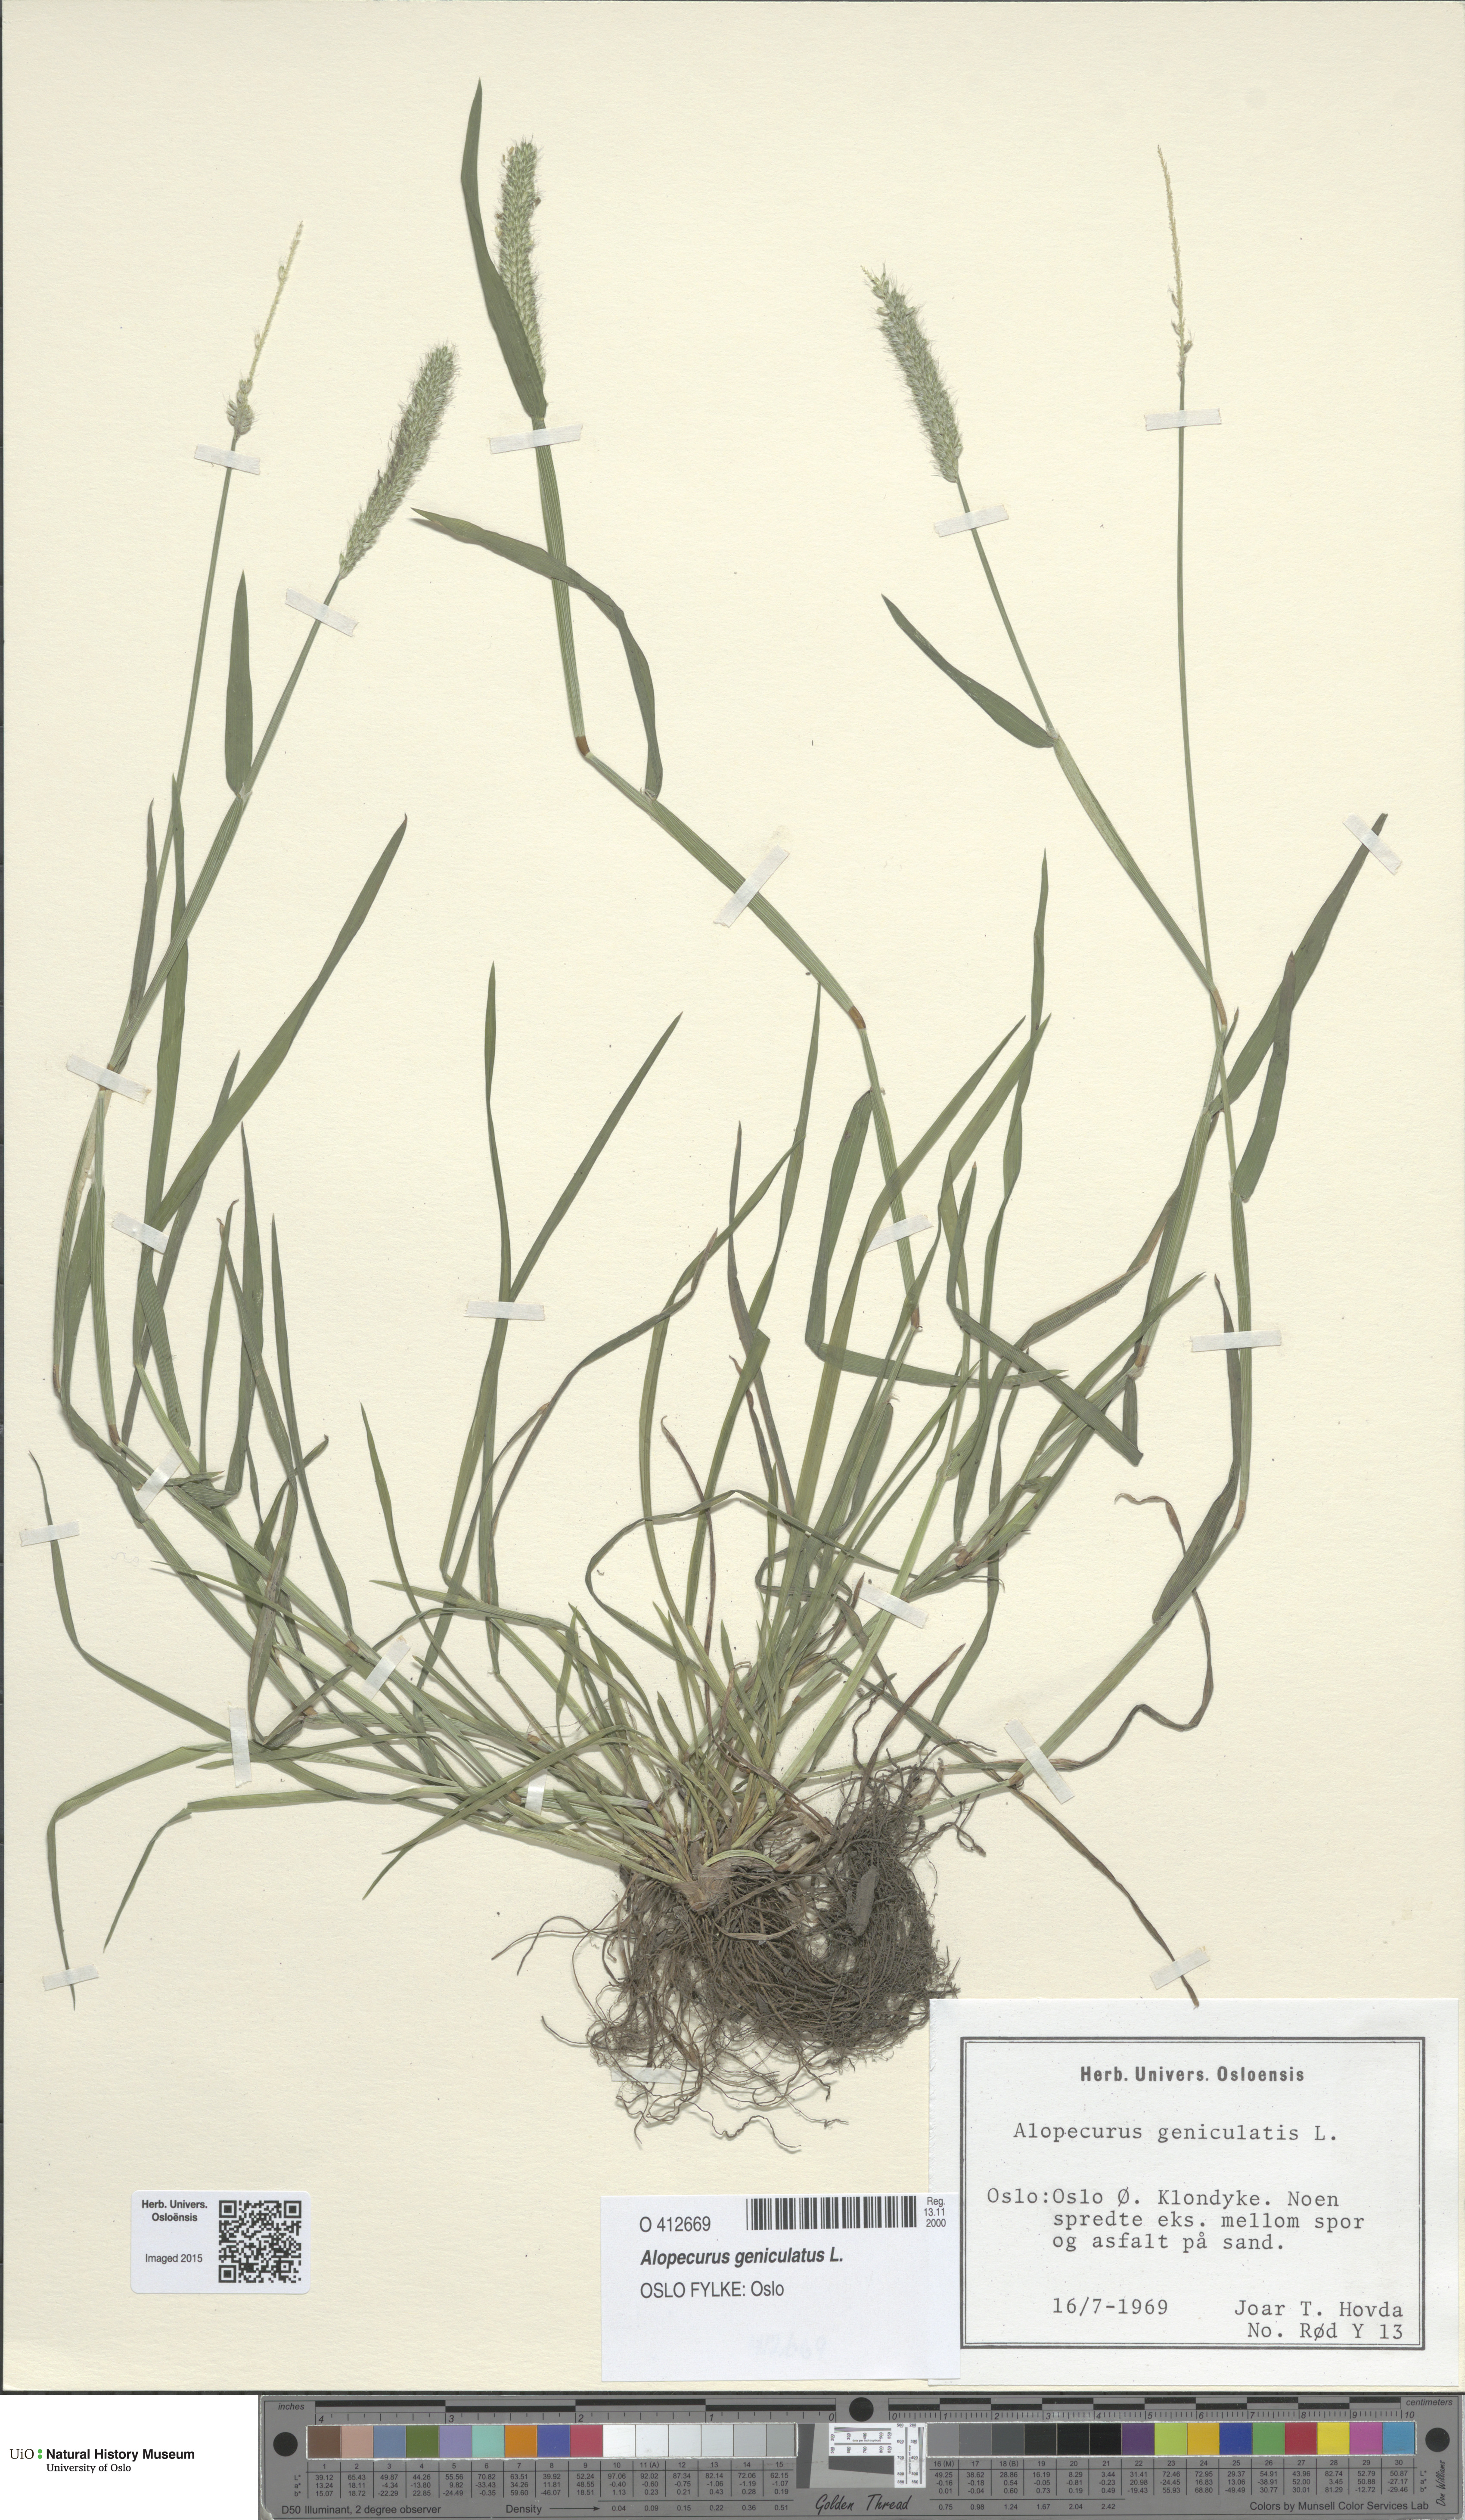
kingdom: Plantae
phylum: Tracheophyta
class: Liliopsida
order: Poales
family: Poaceae
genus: Alopecurus
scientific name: Alopecurus geniculatus
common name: Water foxtail
